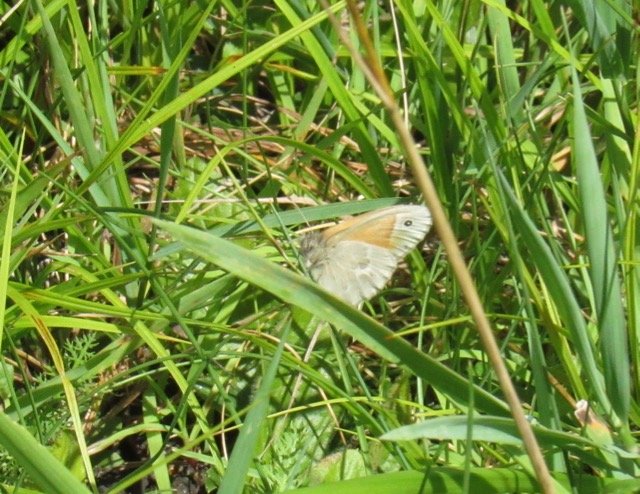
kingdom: Animalia
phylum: Arthropoda
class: Insecta
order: Lepidoptera
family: Nymphalidae
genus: Coenonympha
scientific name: Coenonympha tullia
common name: Large Heath
